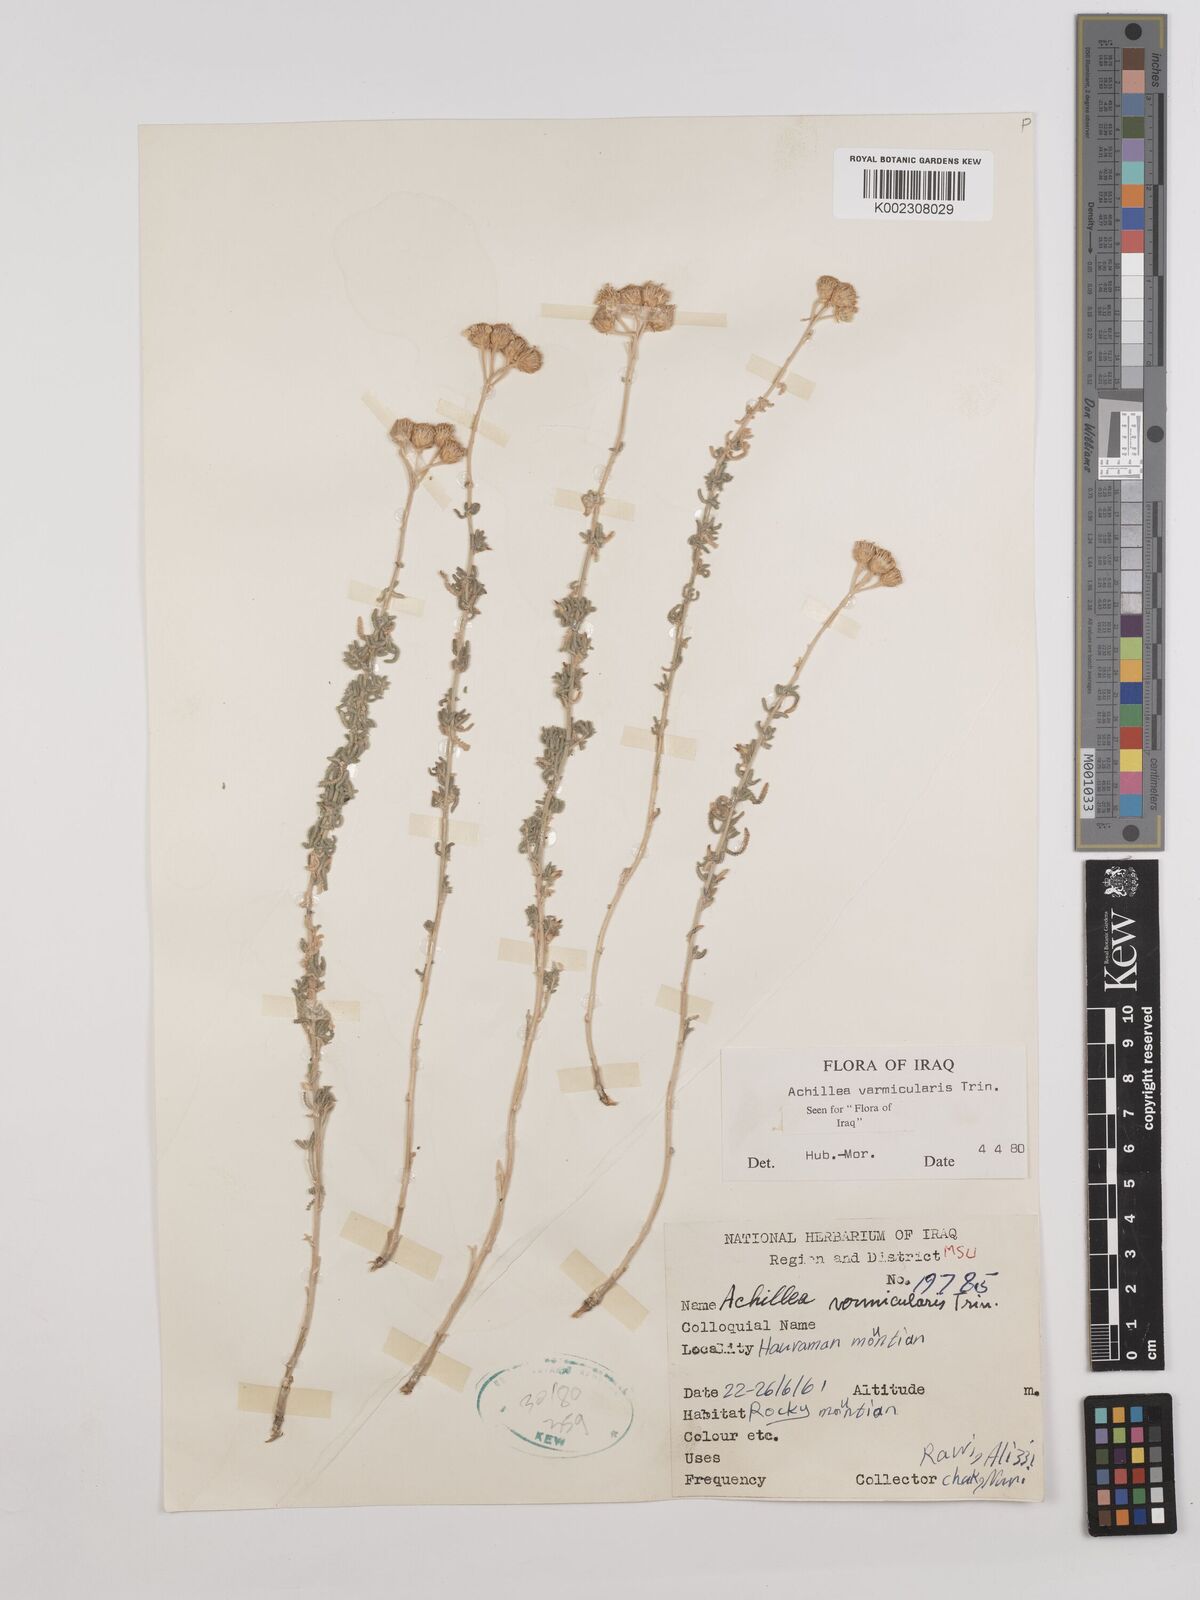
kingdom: Plantae
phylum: Tracheophyta
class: Magnoliopsida
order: Asterales
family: Asteraceae
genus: Achillea
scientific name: Achillea vermicularis
